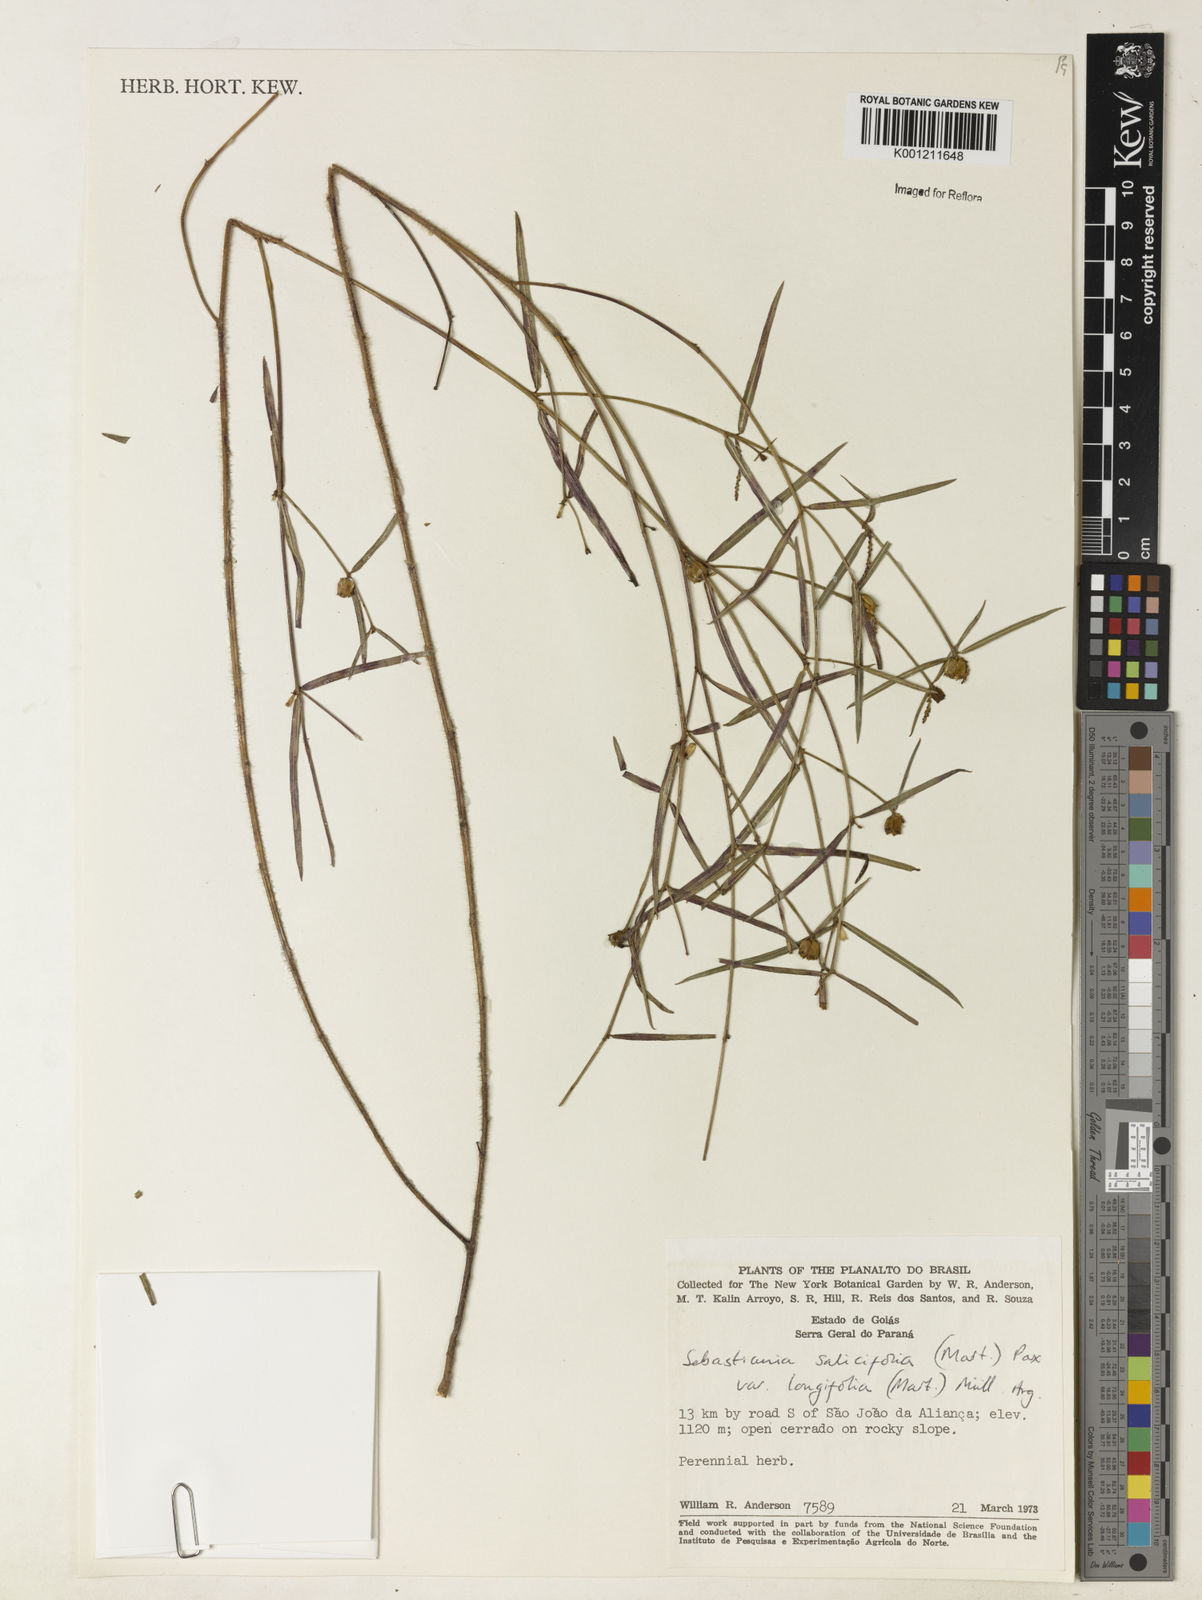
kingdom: Plantae
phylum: Tracheophyta
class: Magnoliopsida
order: Malpighiales
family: Euphorbiaceae
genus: Microstachys
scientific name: Microstachys
